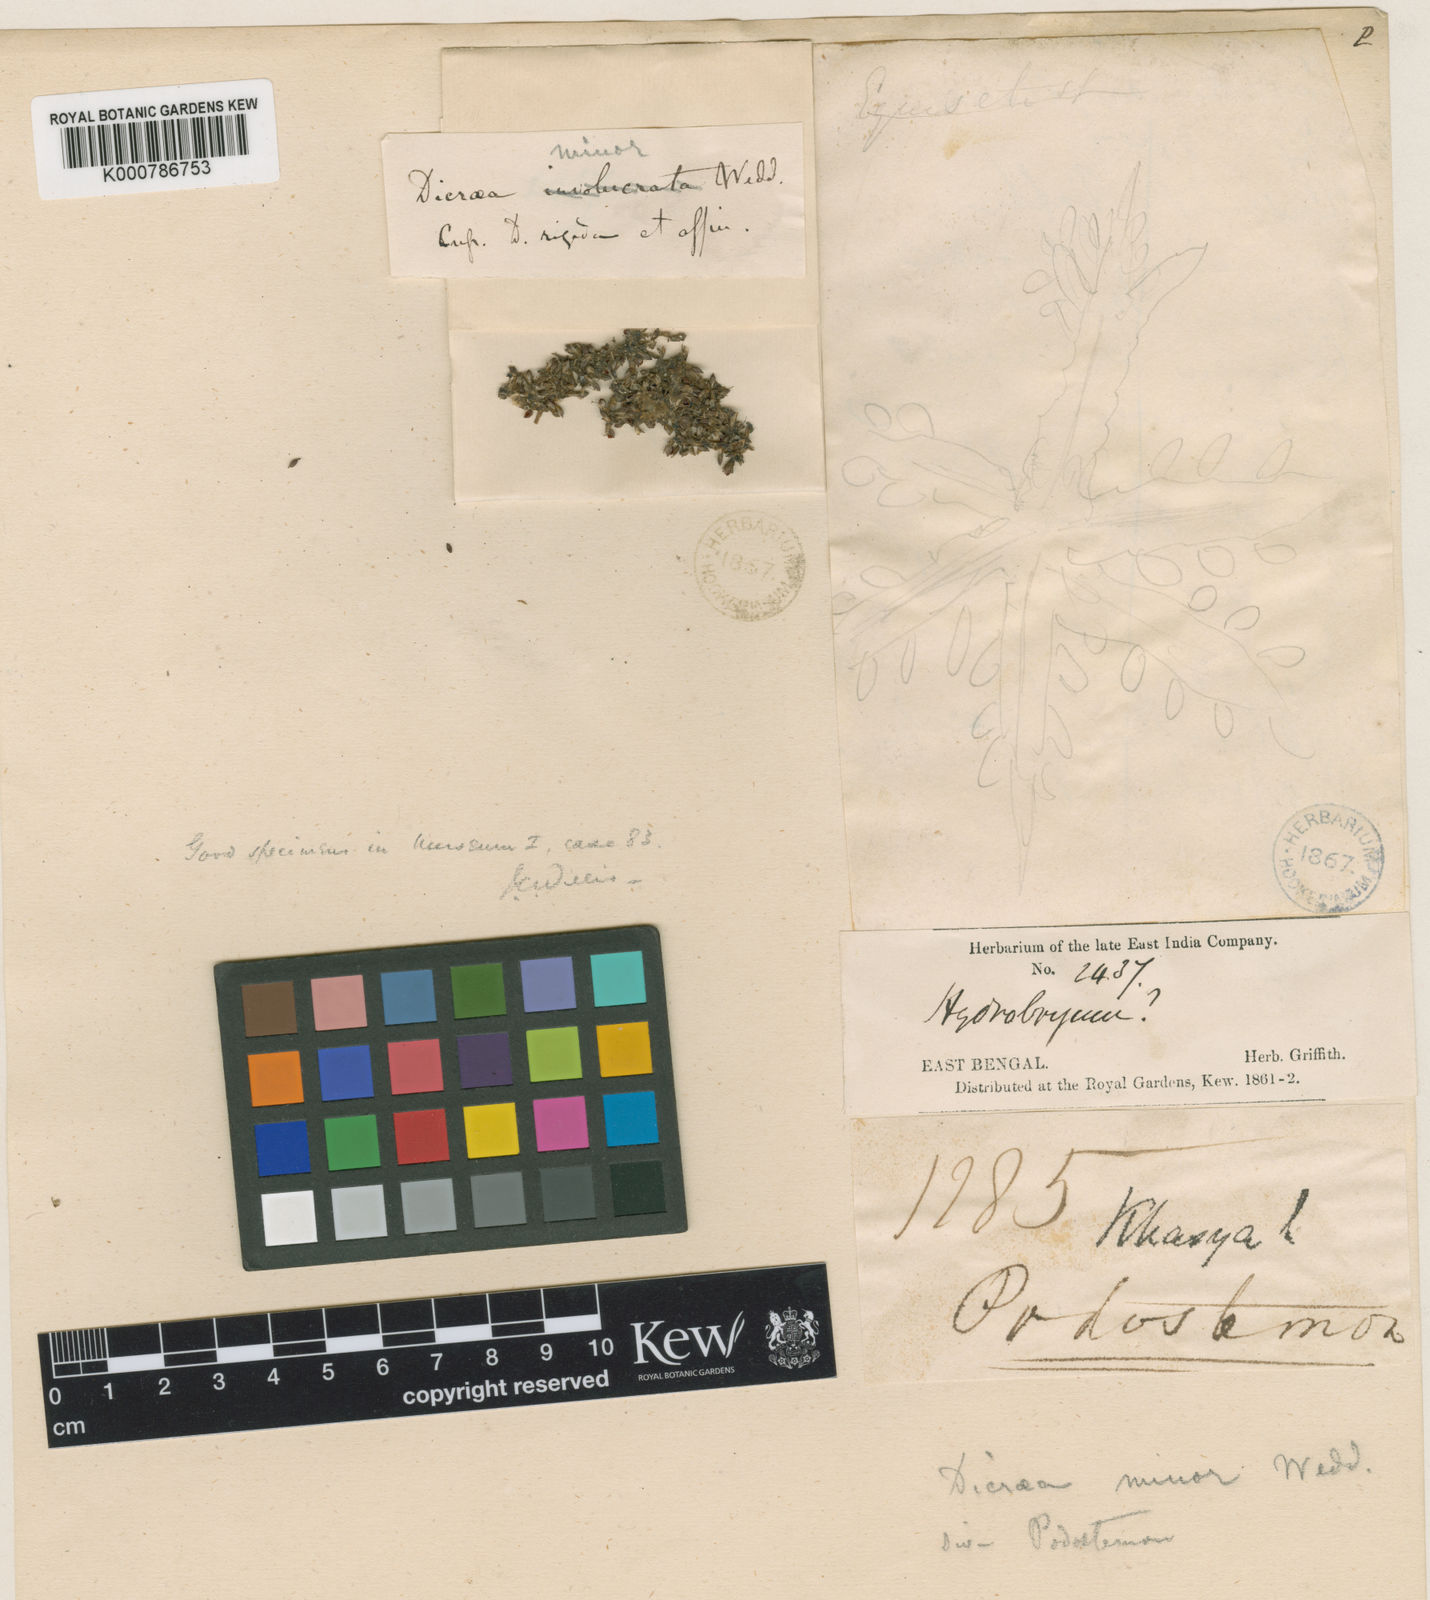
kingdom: Plantae
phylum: Tracheophyta
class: Magnoliopsida
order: Malpighiales
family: Podostemaceae
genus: Polypleurum
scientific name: Polypleurum wallichii
